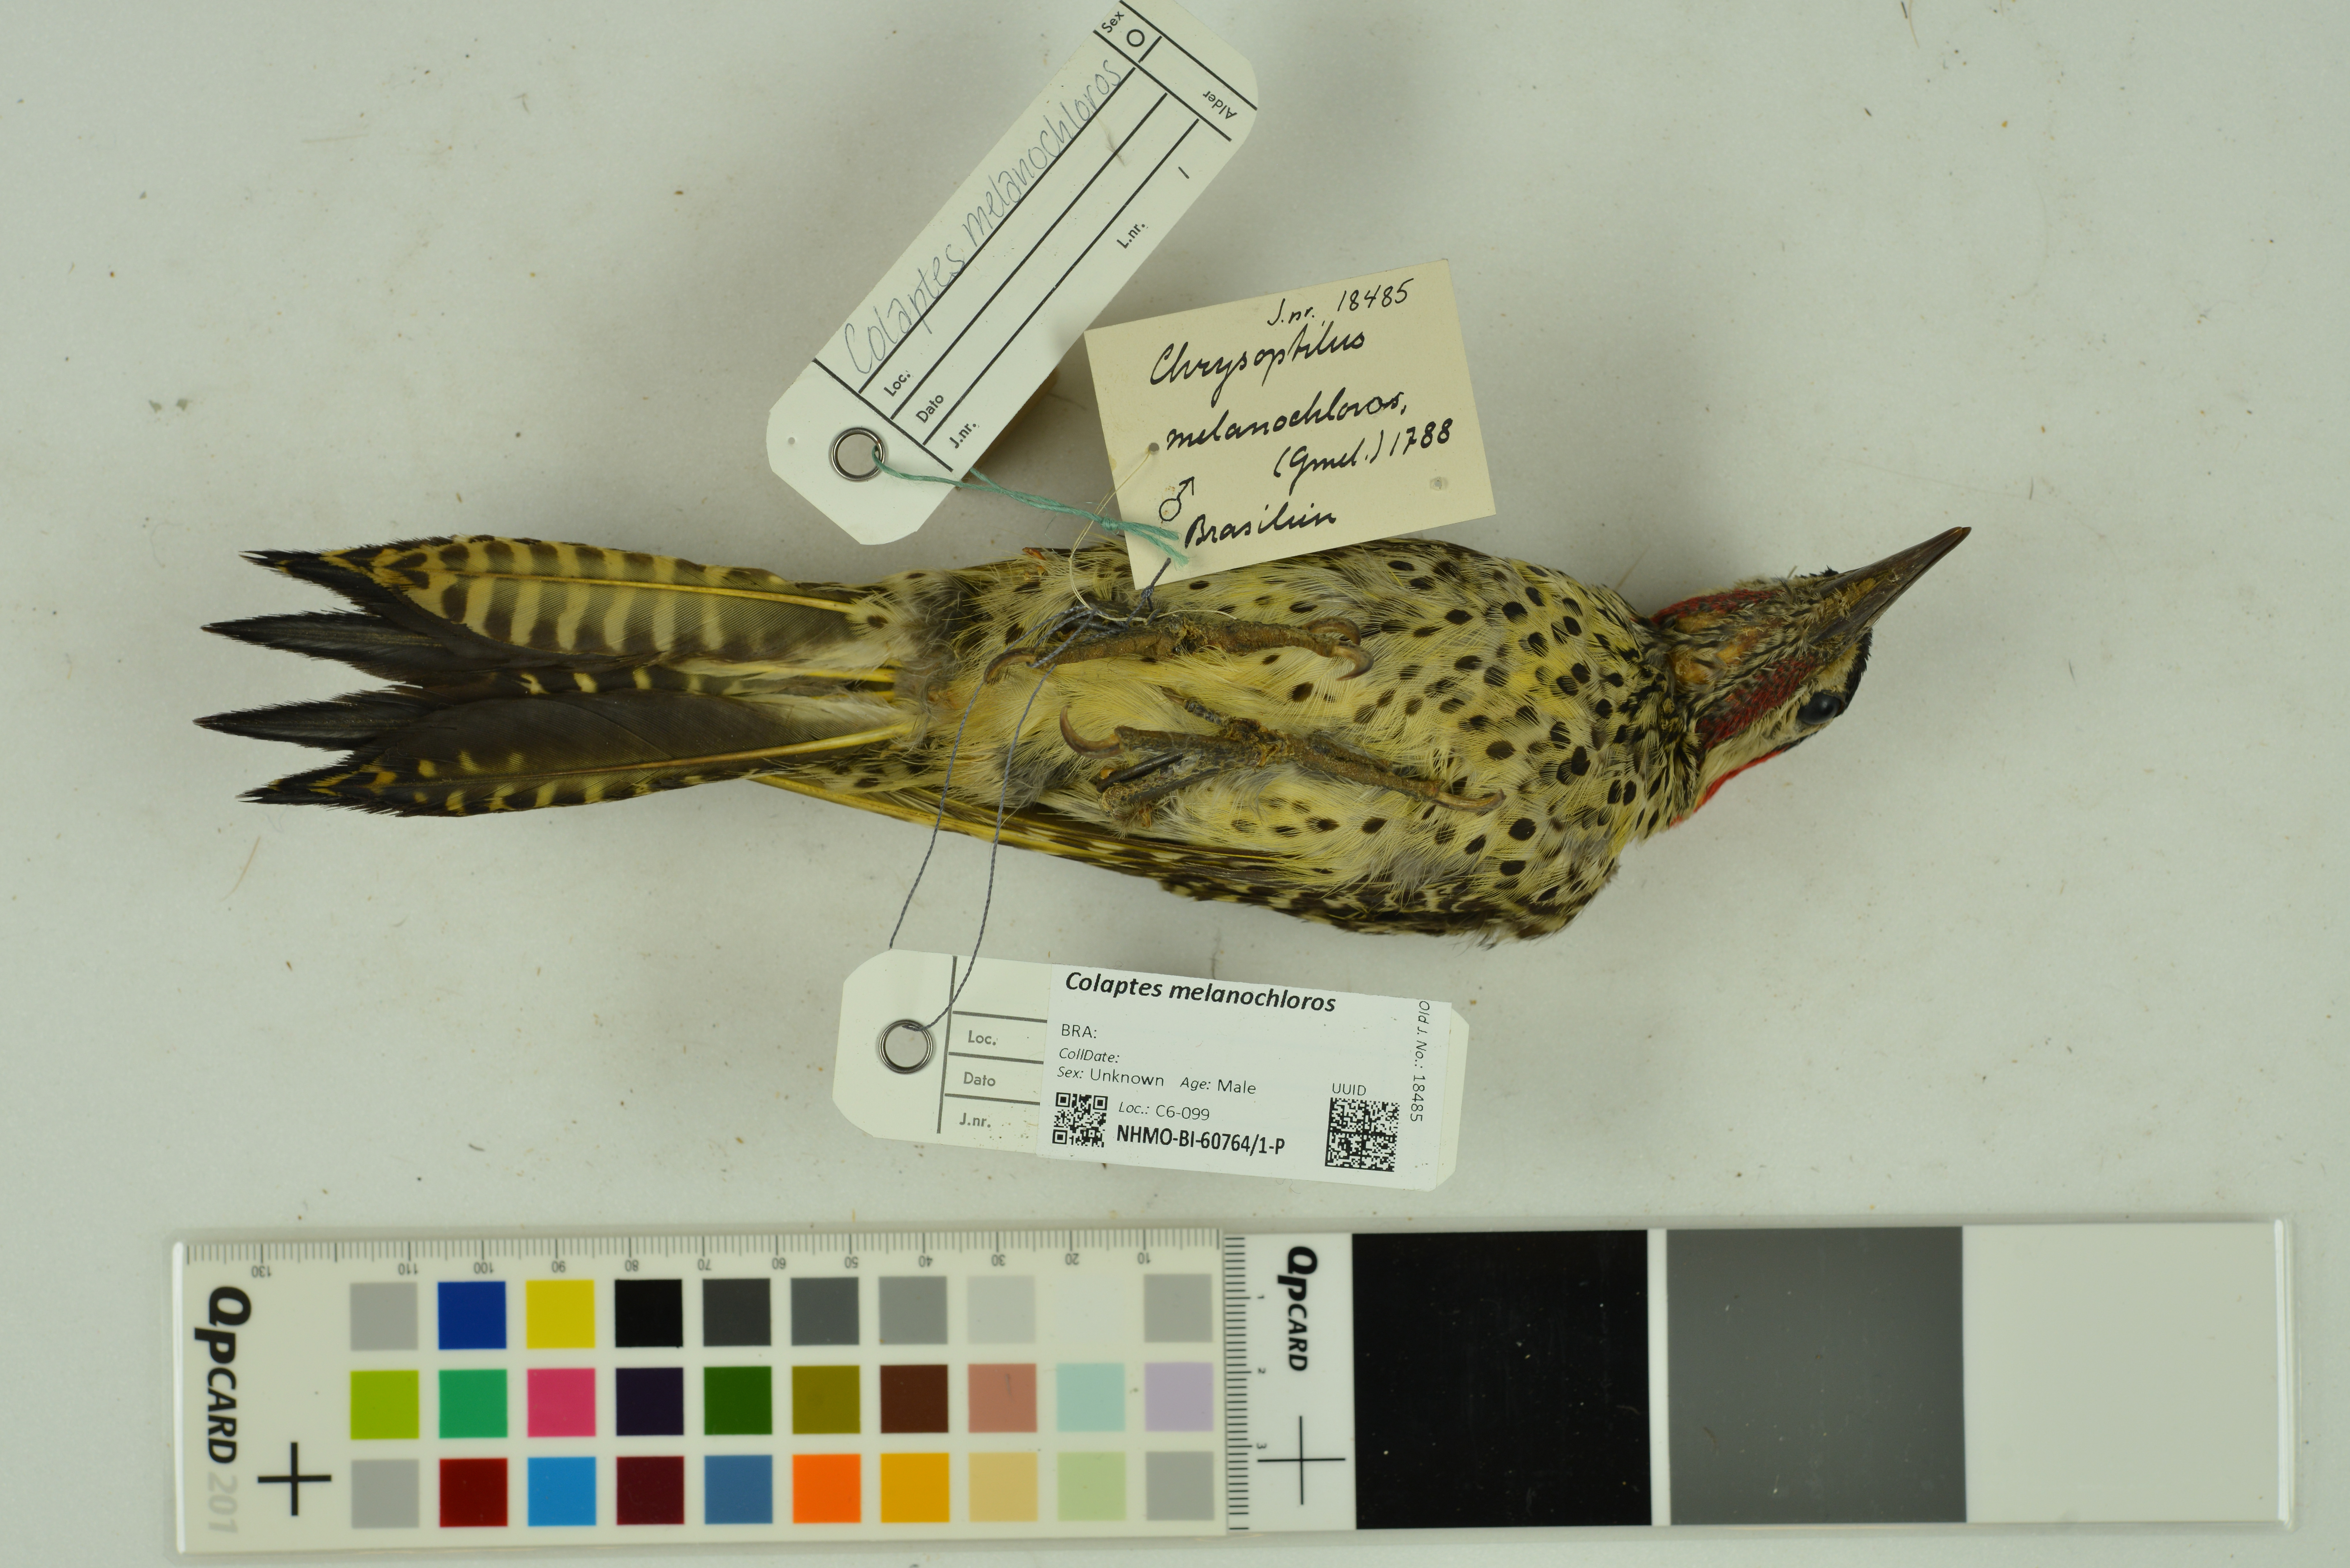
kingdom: Animalia
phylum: Chordata
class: Aves
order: Piciformes
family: Picidae
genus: Colaptes
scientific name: Colaptes melanochloros
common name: Green-barred woodpecker
